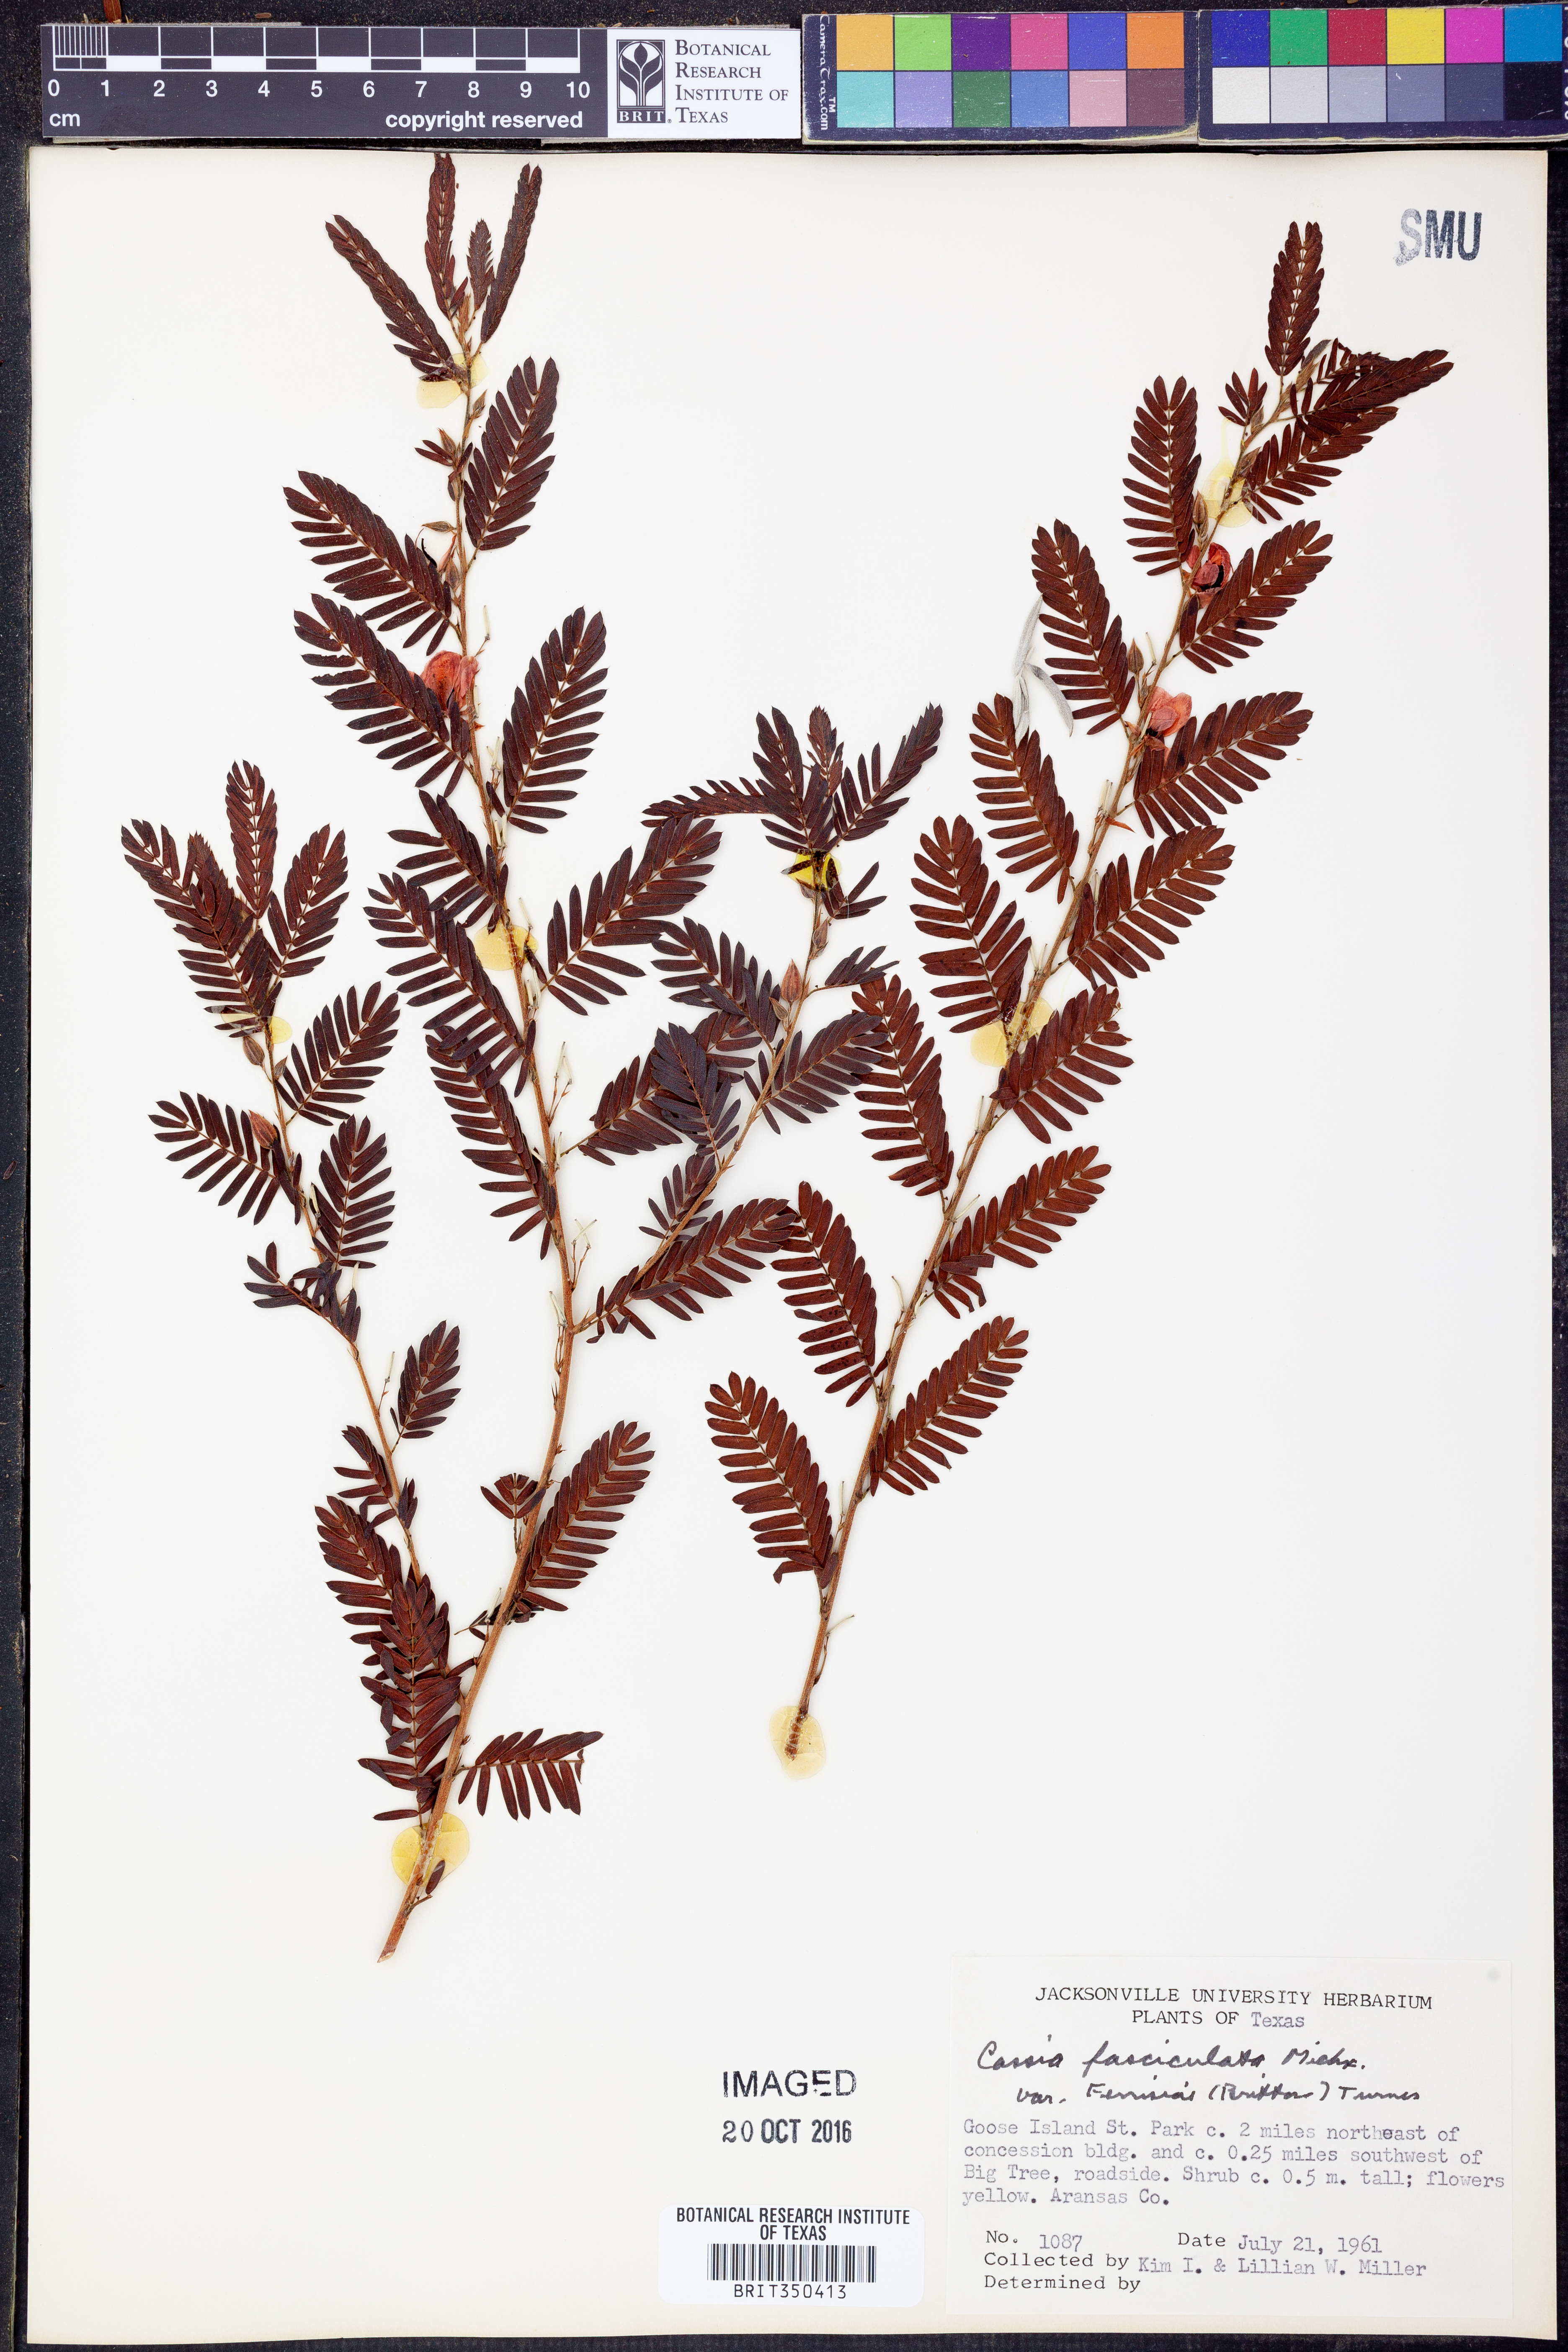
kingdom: Plantae
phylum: Tracheophyta
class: Magnoliopsida
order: Fabales
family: Fabaceae
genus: Chamaecrista
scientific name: Chamaecrista fasciculata
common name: Golden cassia
